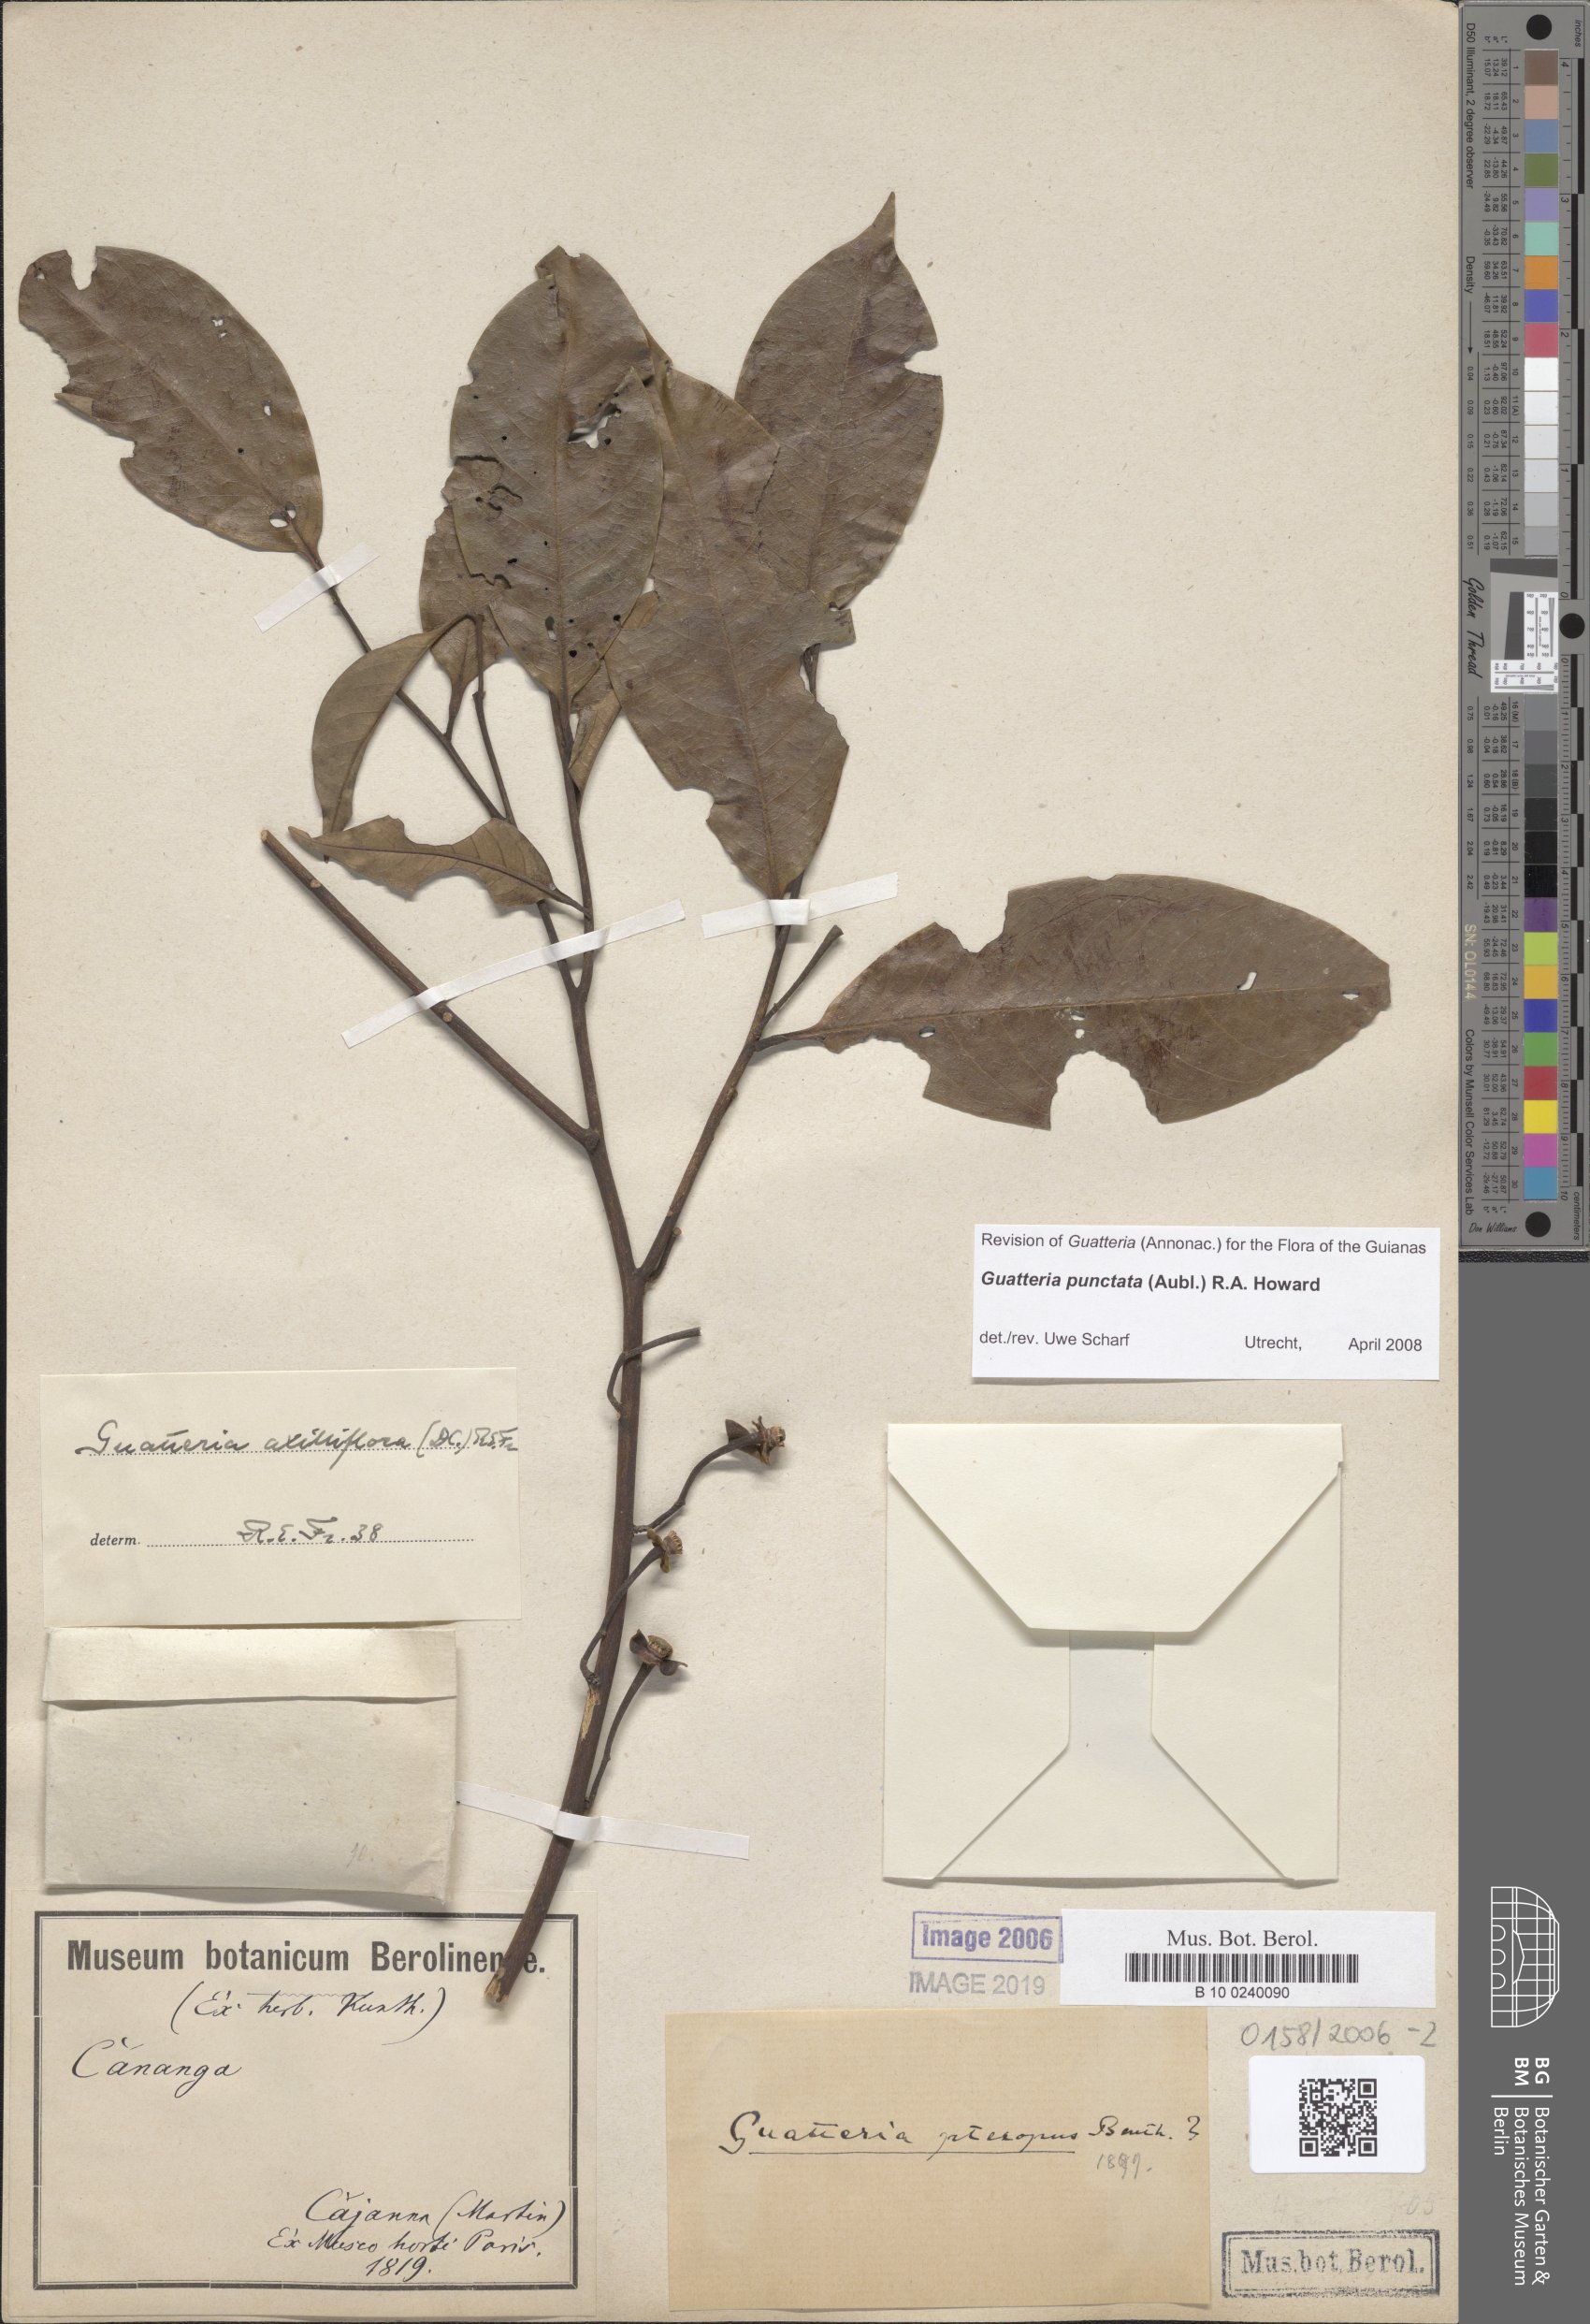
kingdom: Plantae
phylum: Tracheophyta
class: Magnoliopsida
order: Magnoliales
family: Annonaceae
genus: Guatteria
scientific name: Guatteria axilliflora
